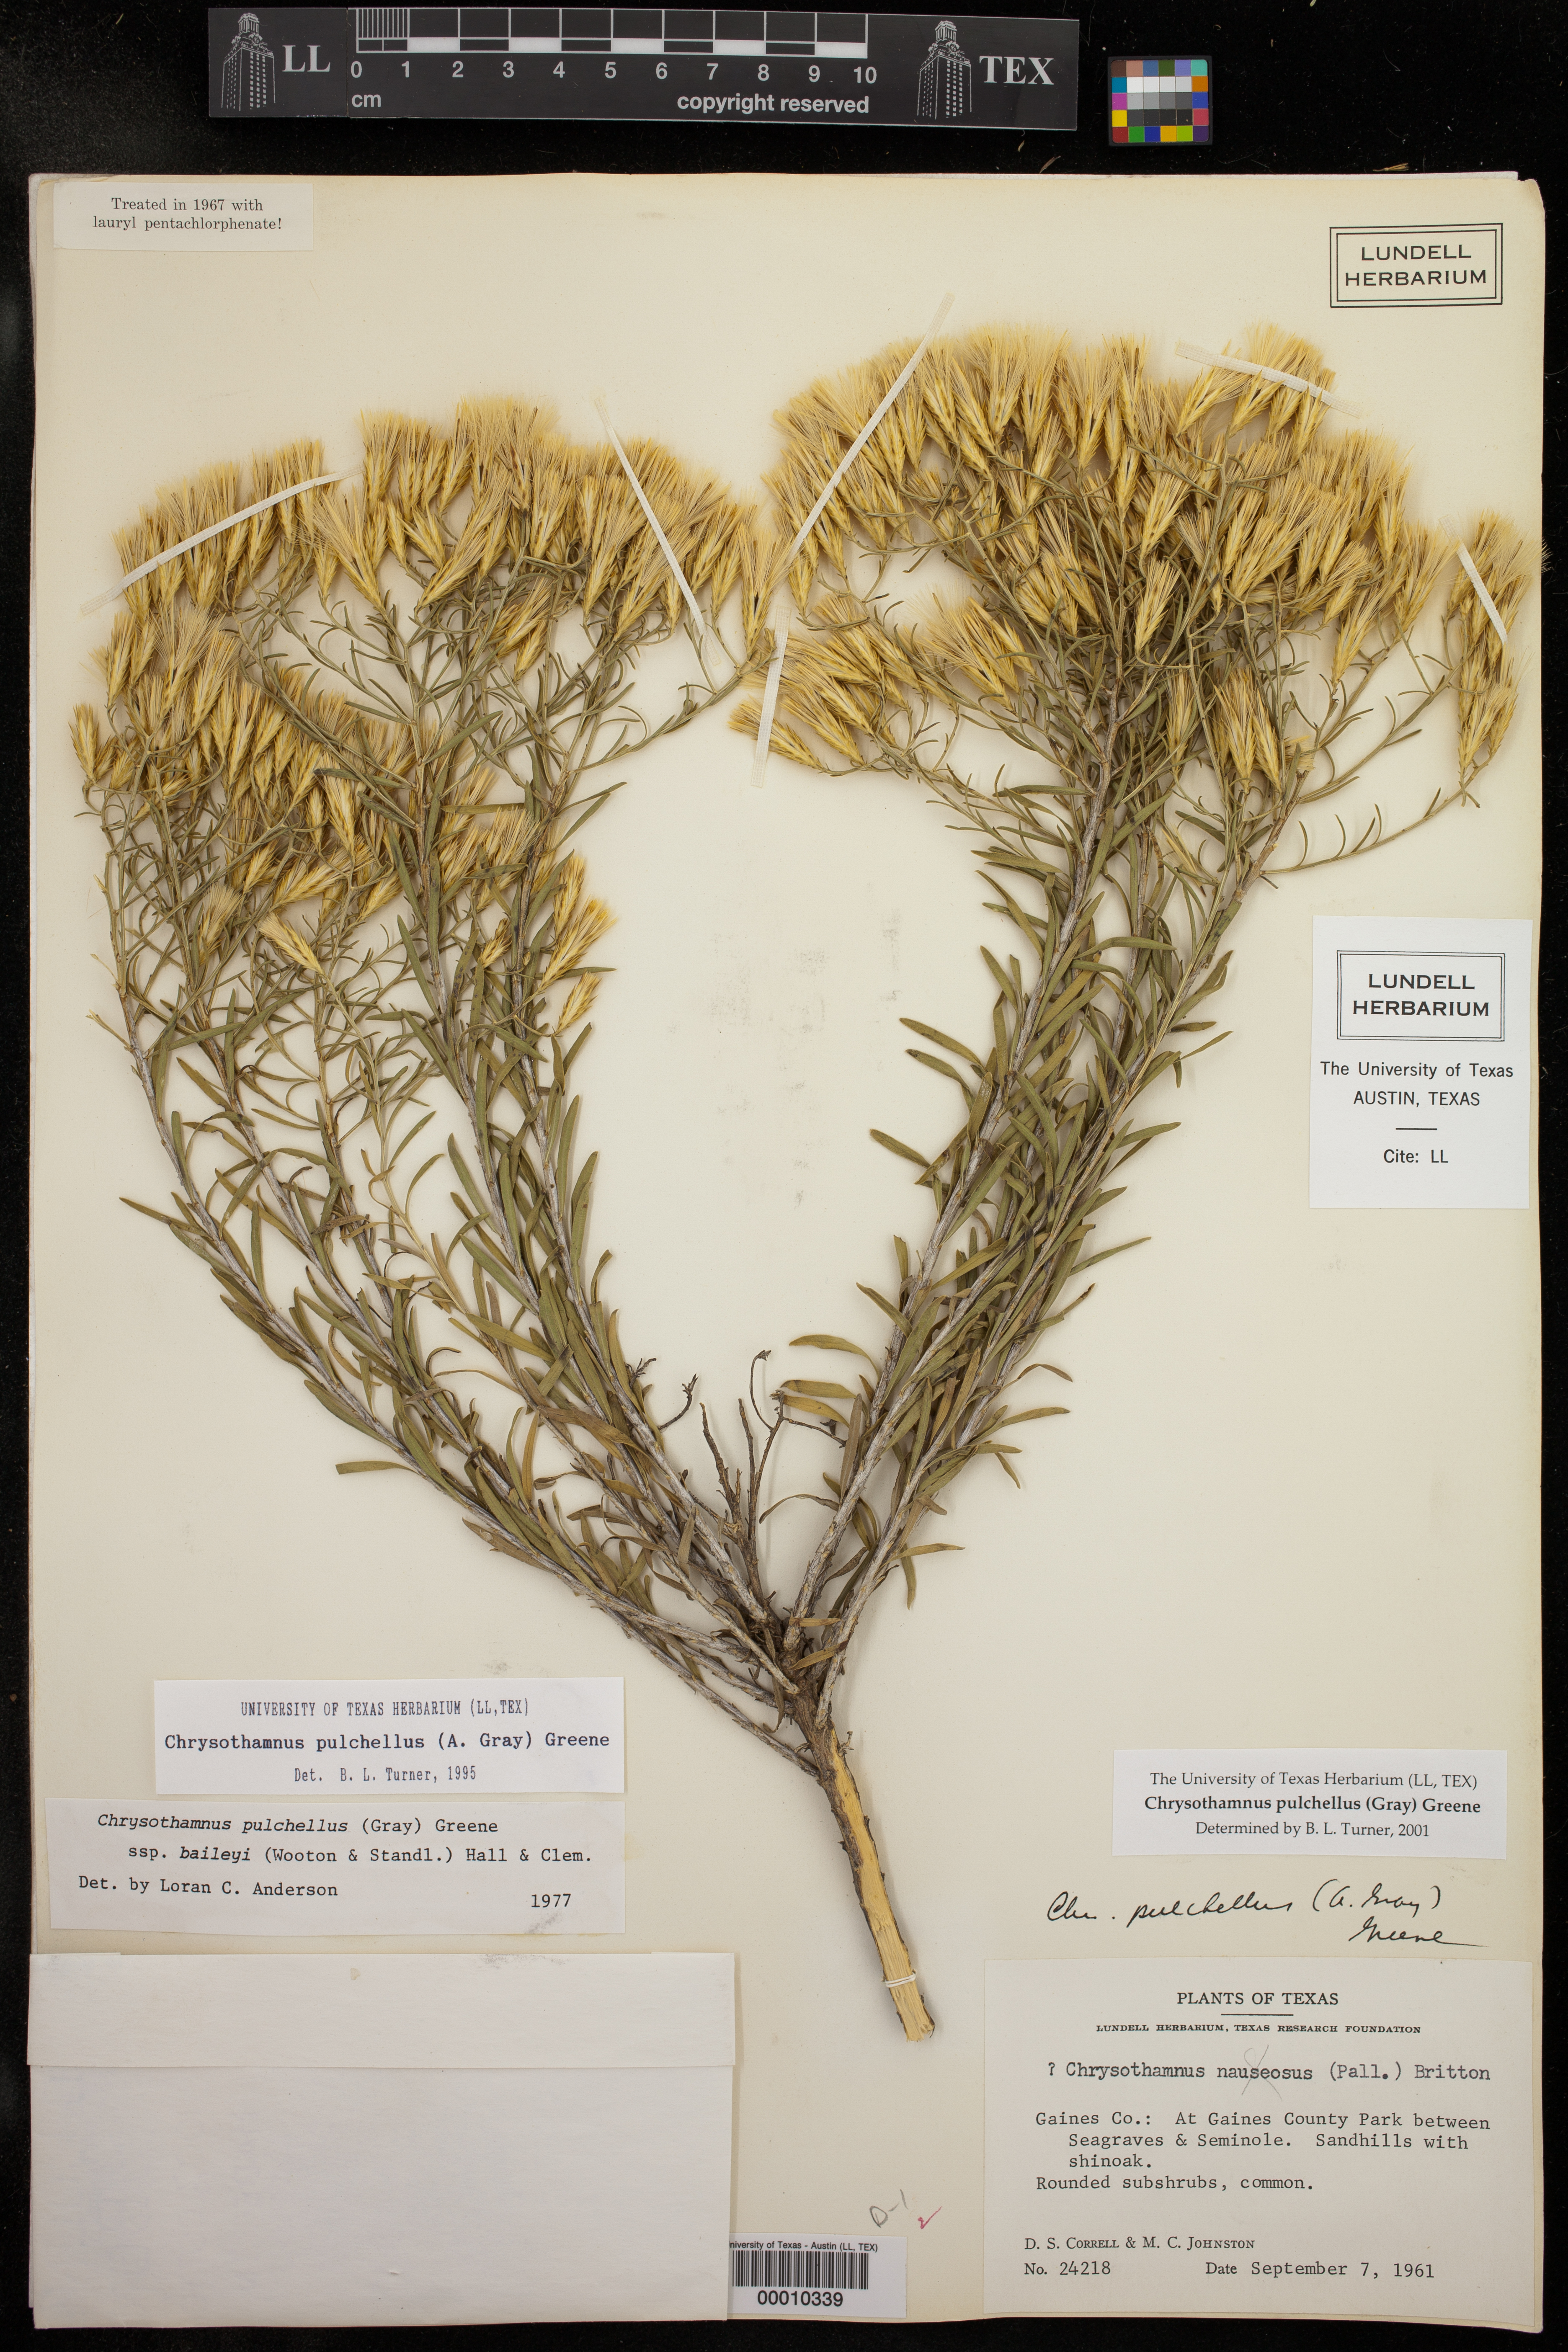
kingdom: Plantae
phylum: Tracheophyta
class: Magnoliopsida
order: Asterales
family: Asteraceae
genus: Lorandersonia
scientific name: Lorandersonia pulchella
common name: Southwestern rabbitbrush
